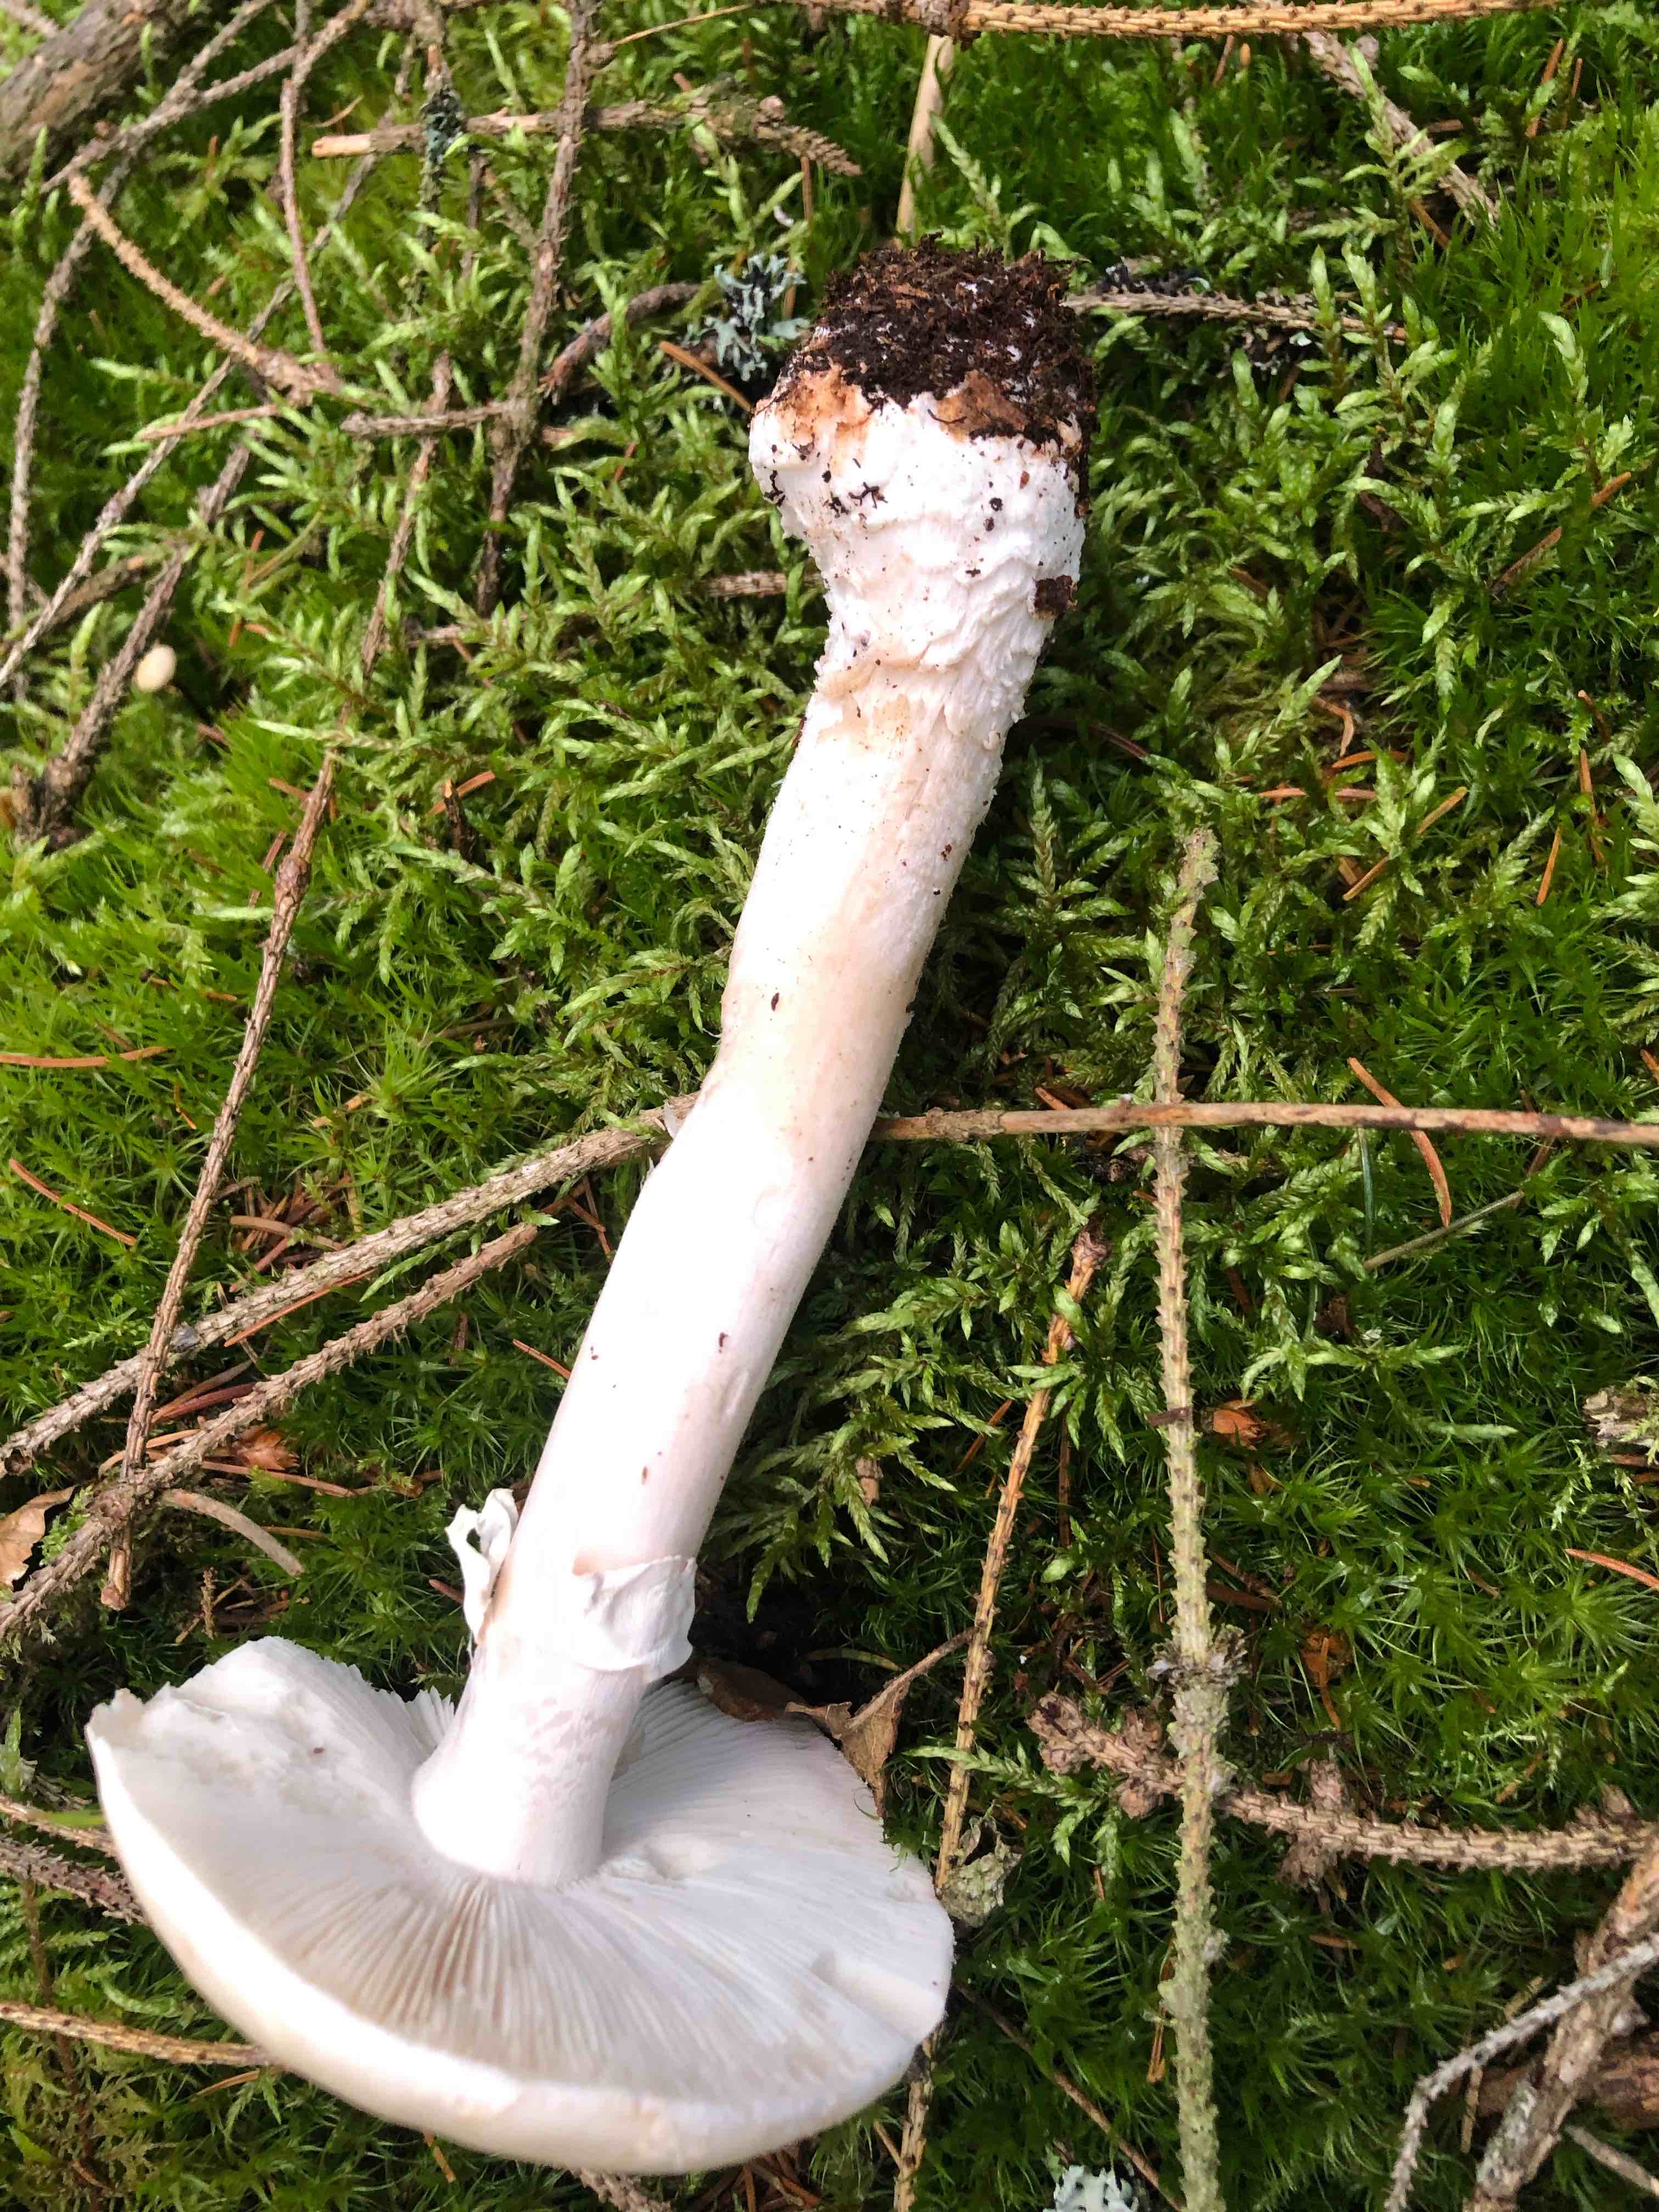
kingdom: Fungi
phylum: Basidiomycota
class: Agaricomycetes
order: Agaricales
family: Amanitaceae
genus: Amanita
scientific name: Amanita rubescens
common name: rødmende fluesvamp
